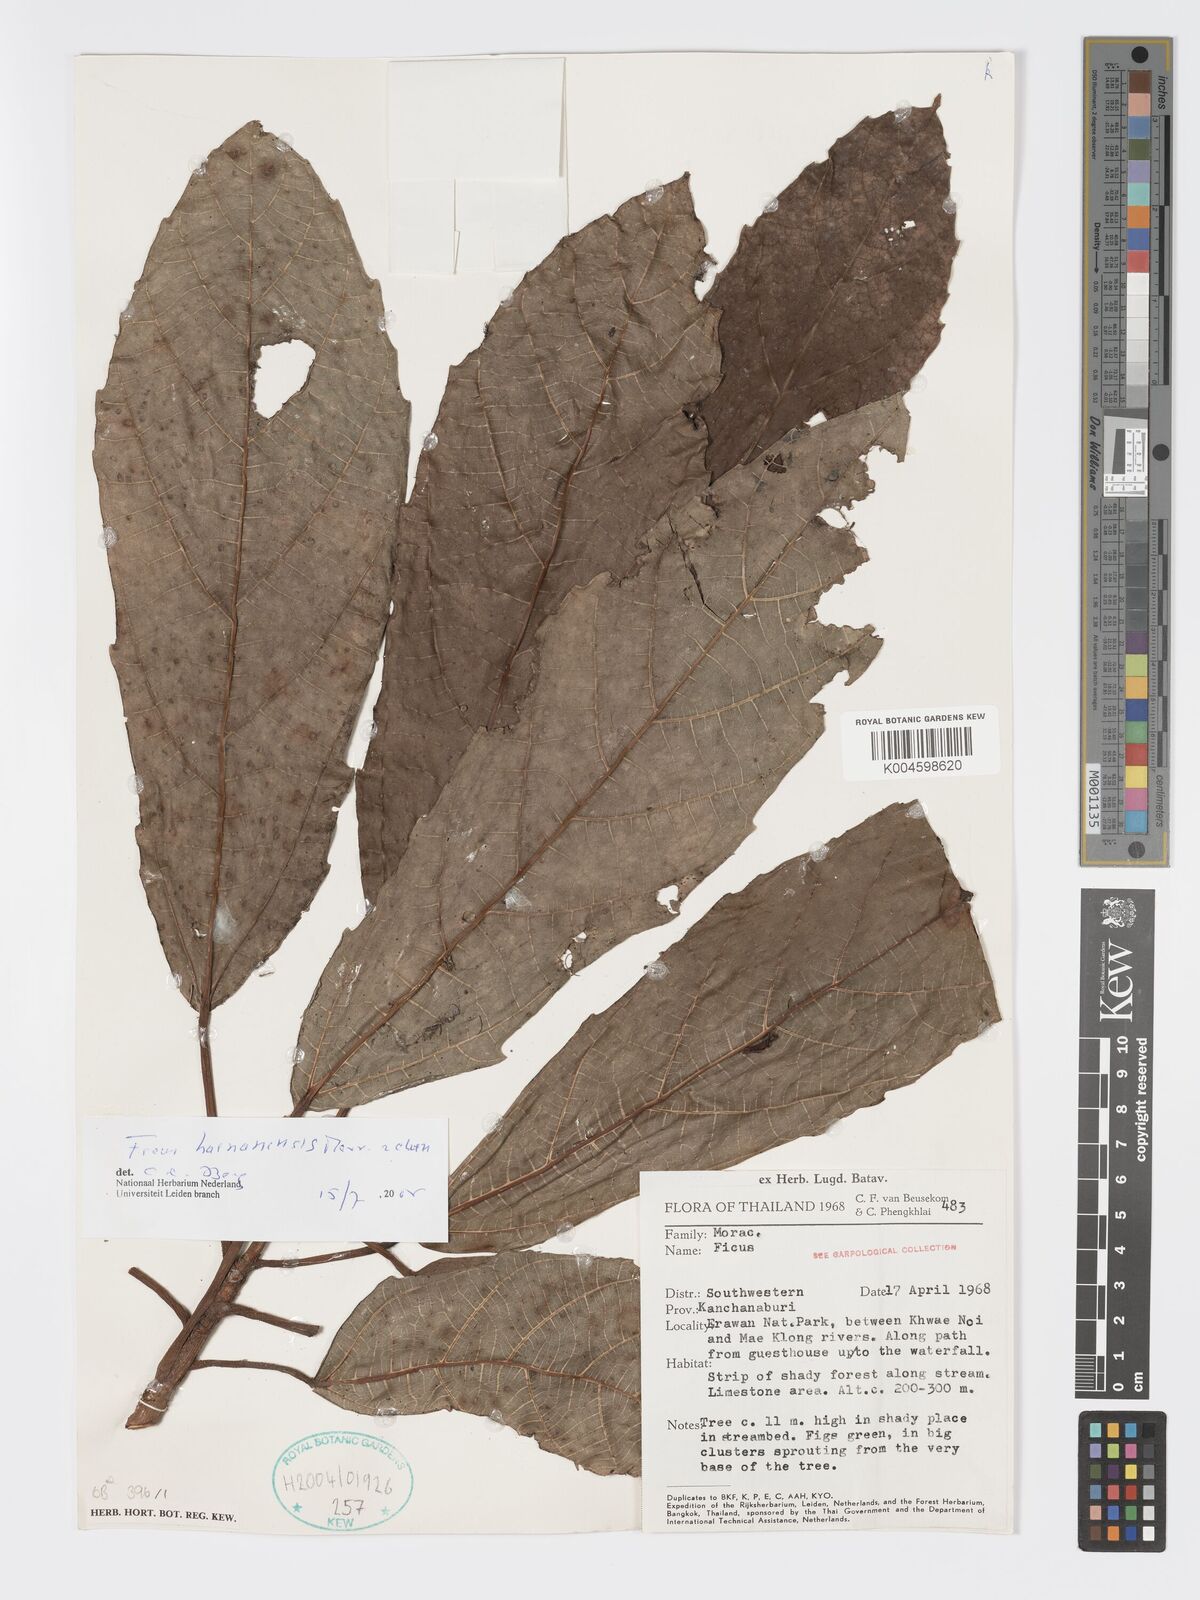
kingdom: Plantae
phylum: Tracheophyta
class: Magnoliopsida
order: Rosales
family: Moraceae
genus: Ficus
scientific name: Ficus auriculata
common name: Roxburgh fig
